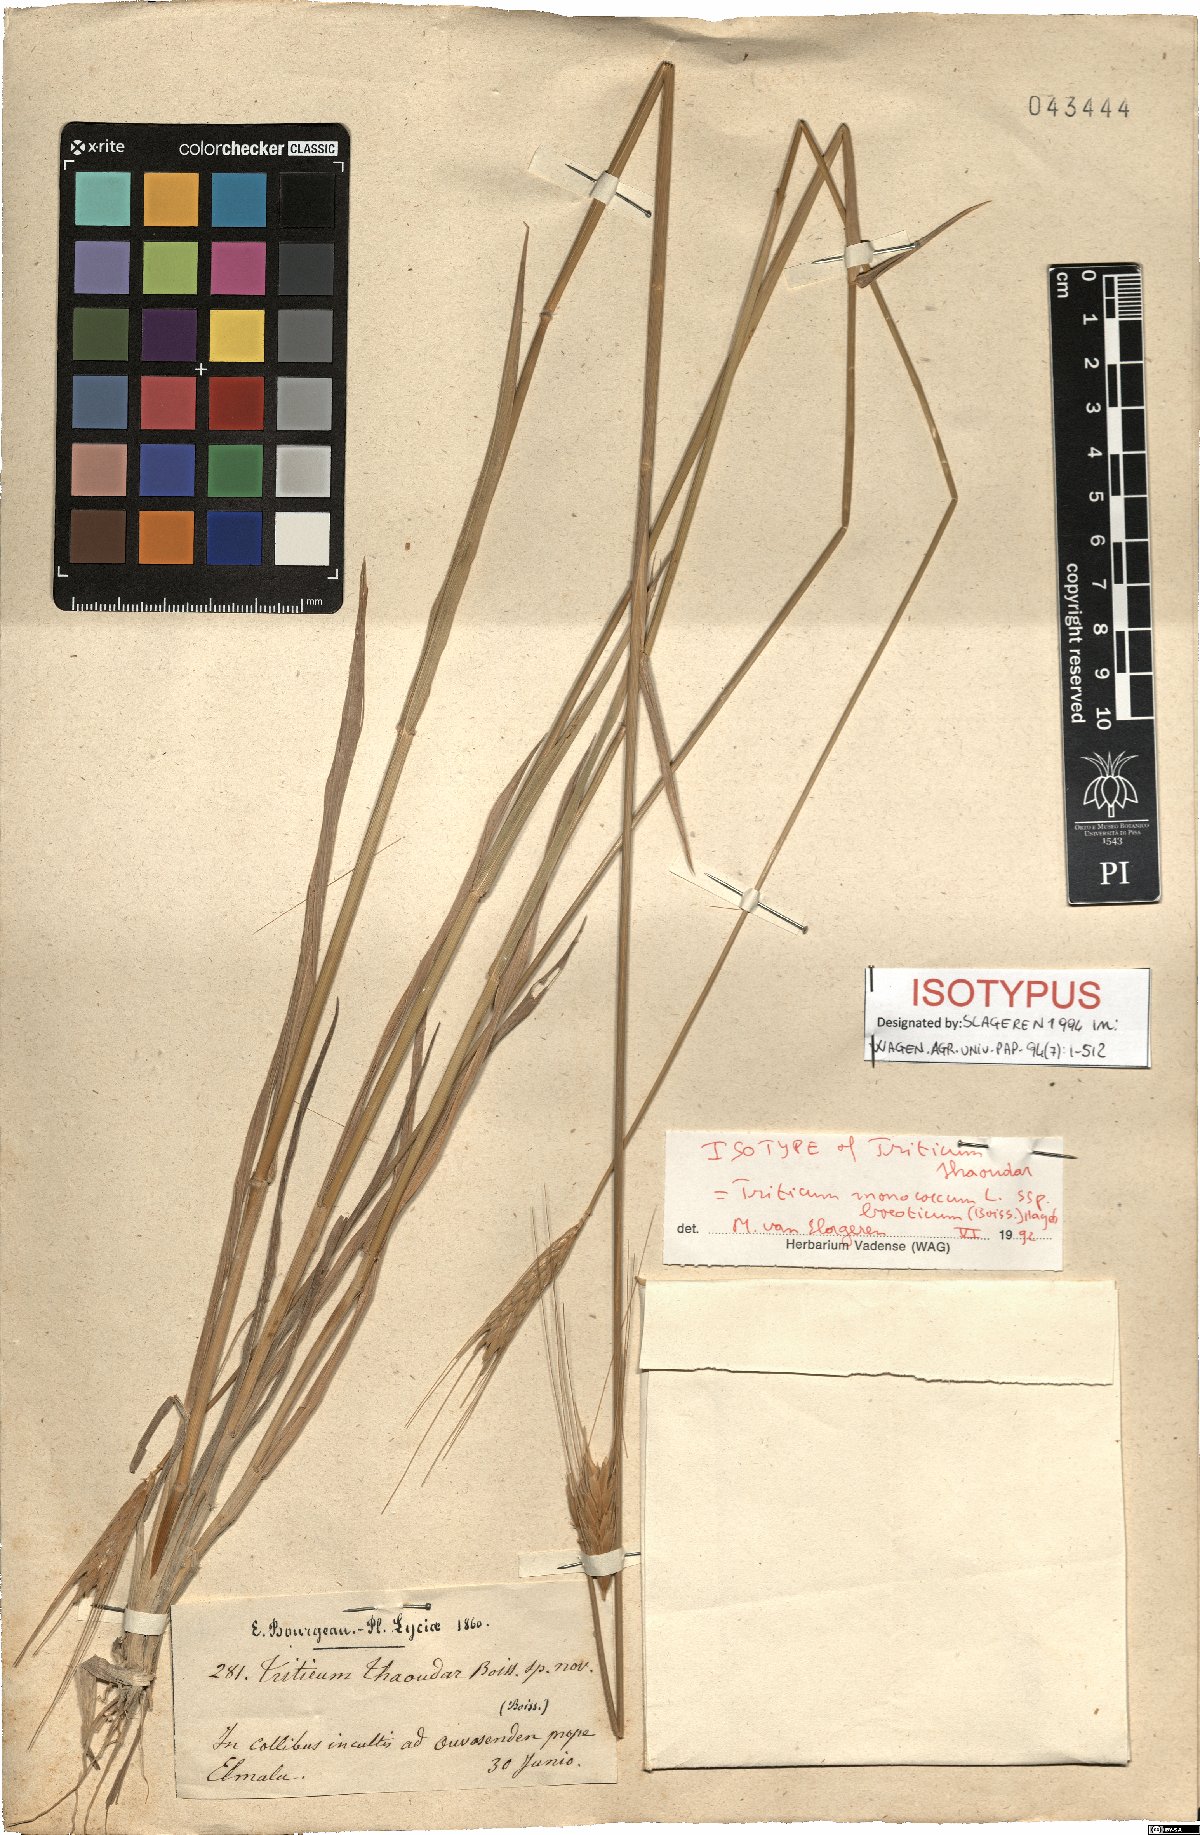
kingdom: Plantae
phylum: Tracheophyta
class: Liliopsida
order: Poales
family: Poaceae
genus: Triticum
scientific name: Triticum monococcum
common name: Einkorn
